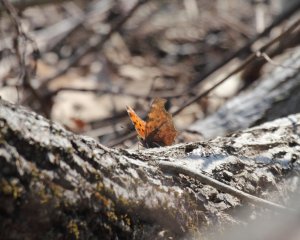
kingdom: Animalia
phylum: Arthropoda
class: Insecta
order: Lepidoptera
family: Nymphalidae
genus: Polygonia
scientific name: Polygonia comma
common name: Eastern Comma
